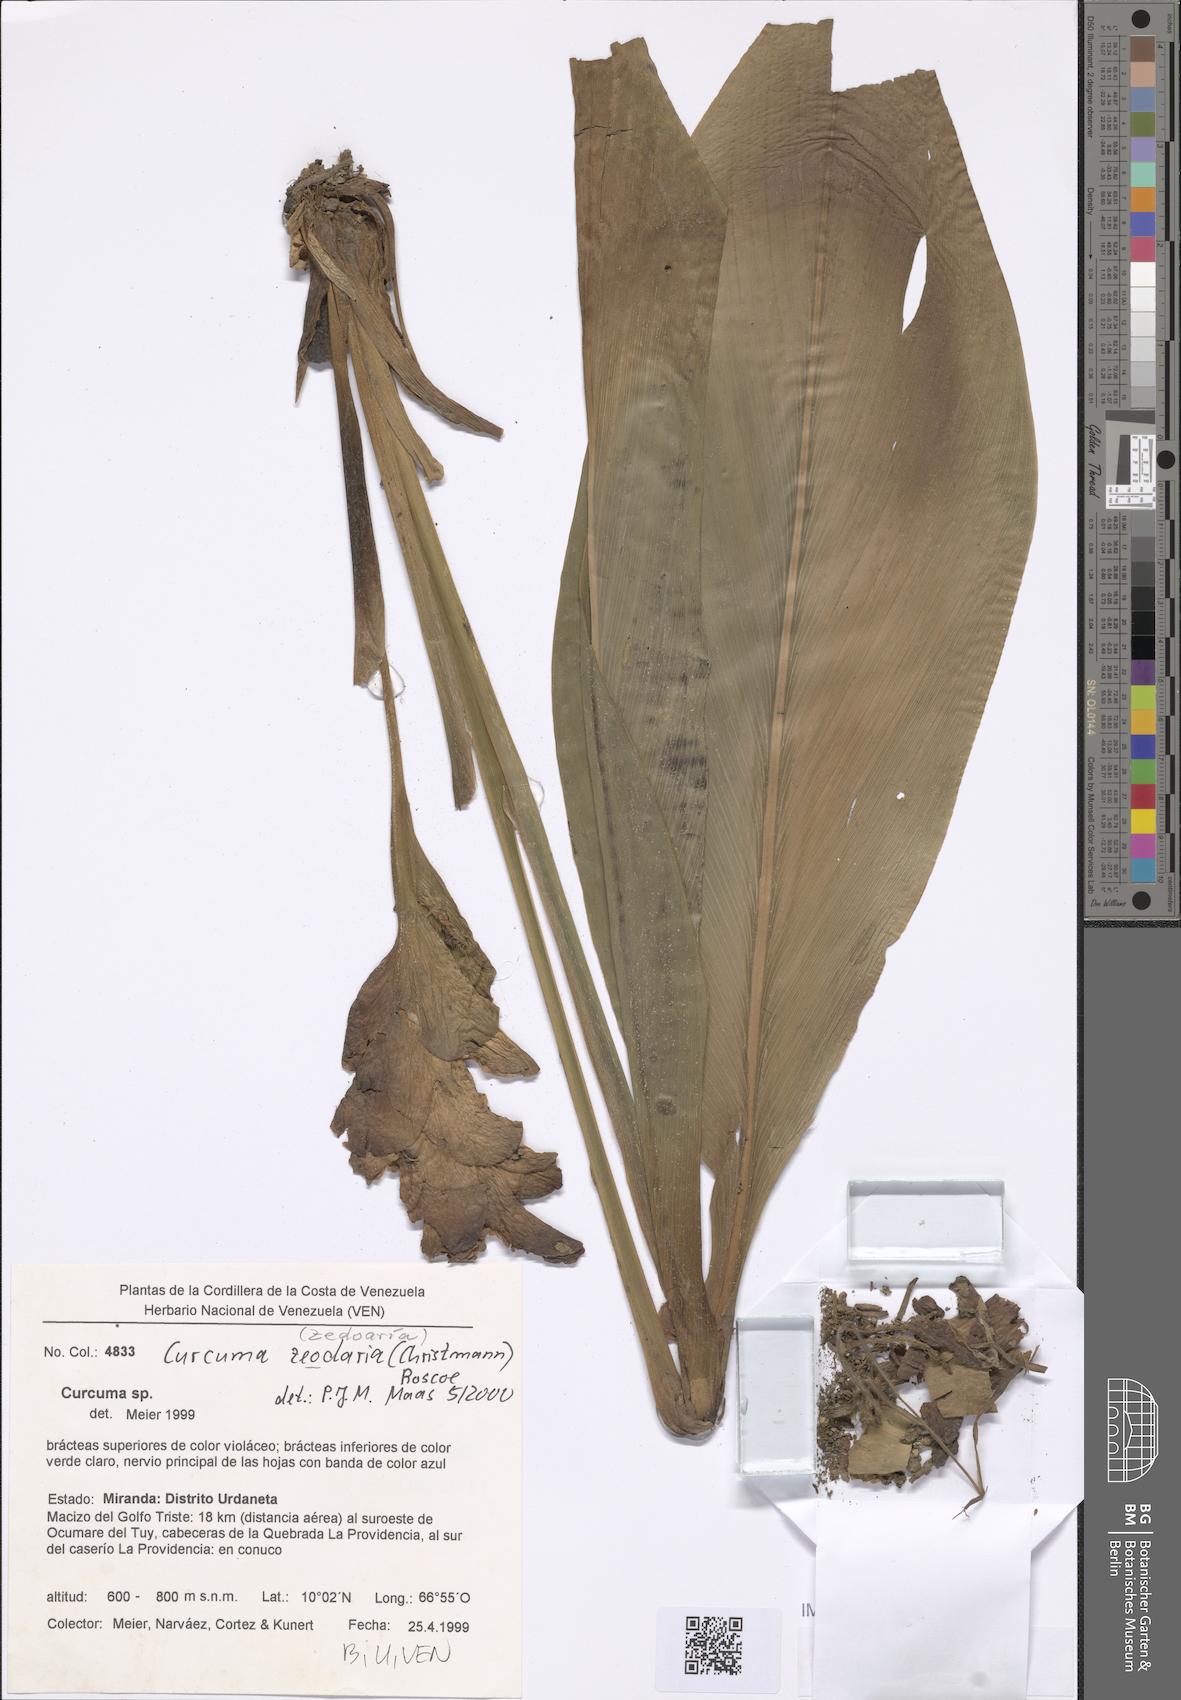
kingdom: Plantae
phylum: Tracheophyta
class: Liliopsida
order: Zingiberales
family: Zingiberaceae
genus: Curcuma
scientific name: Curcuma zedoaria
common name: Zedoary
